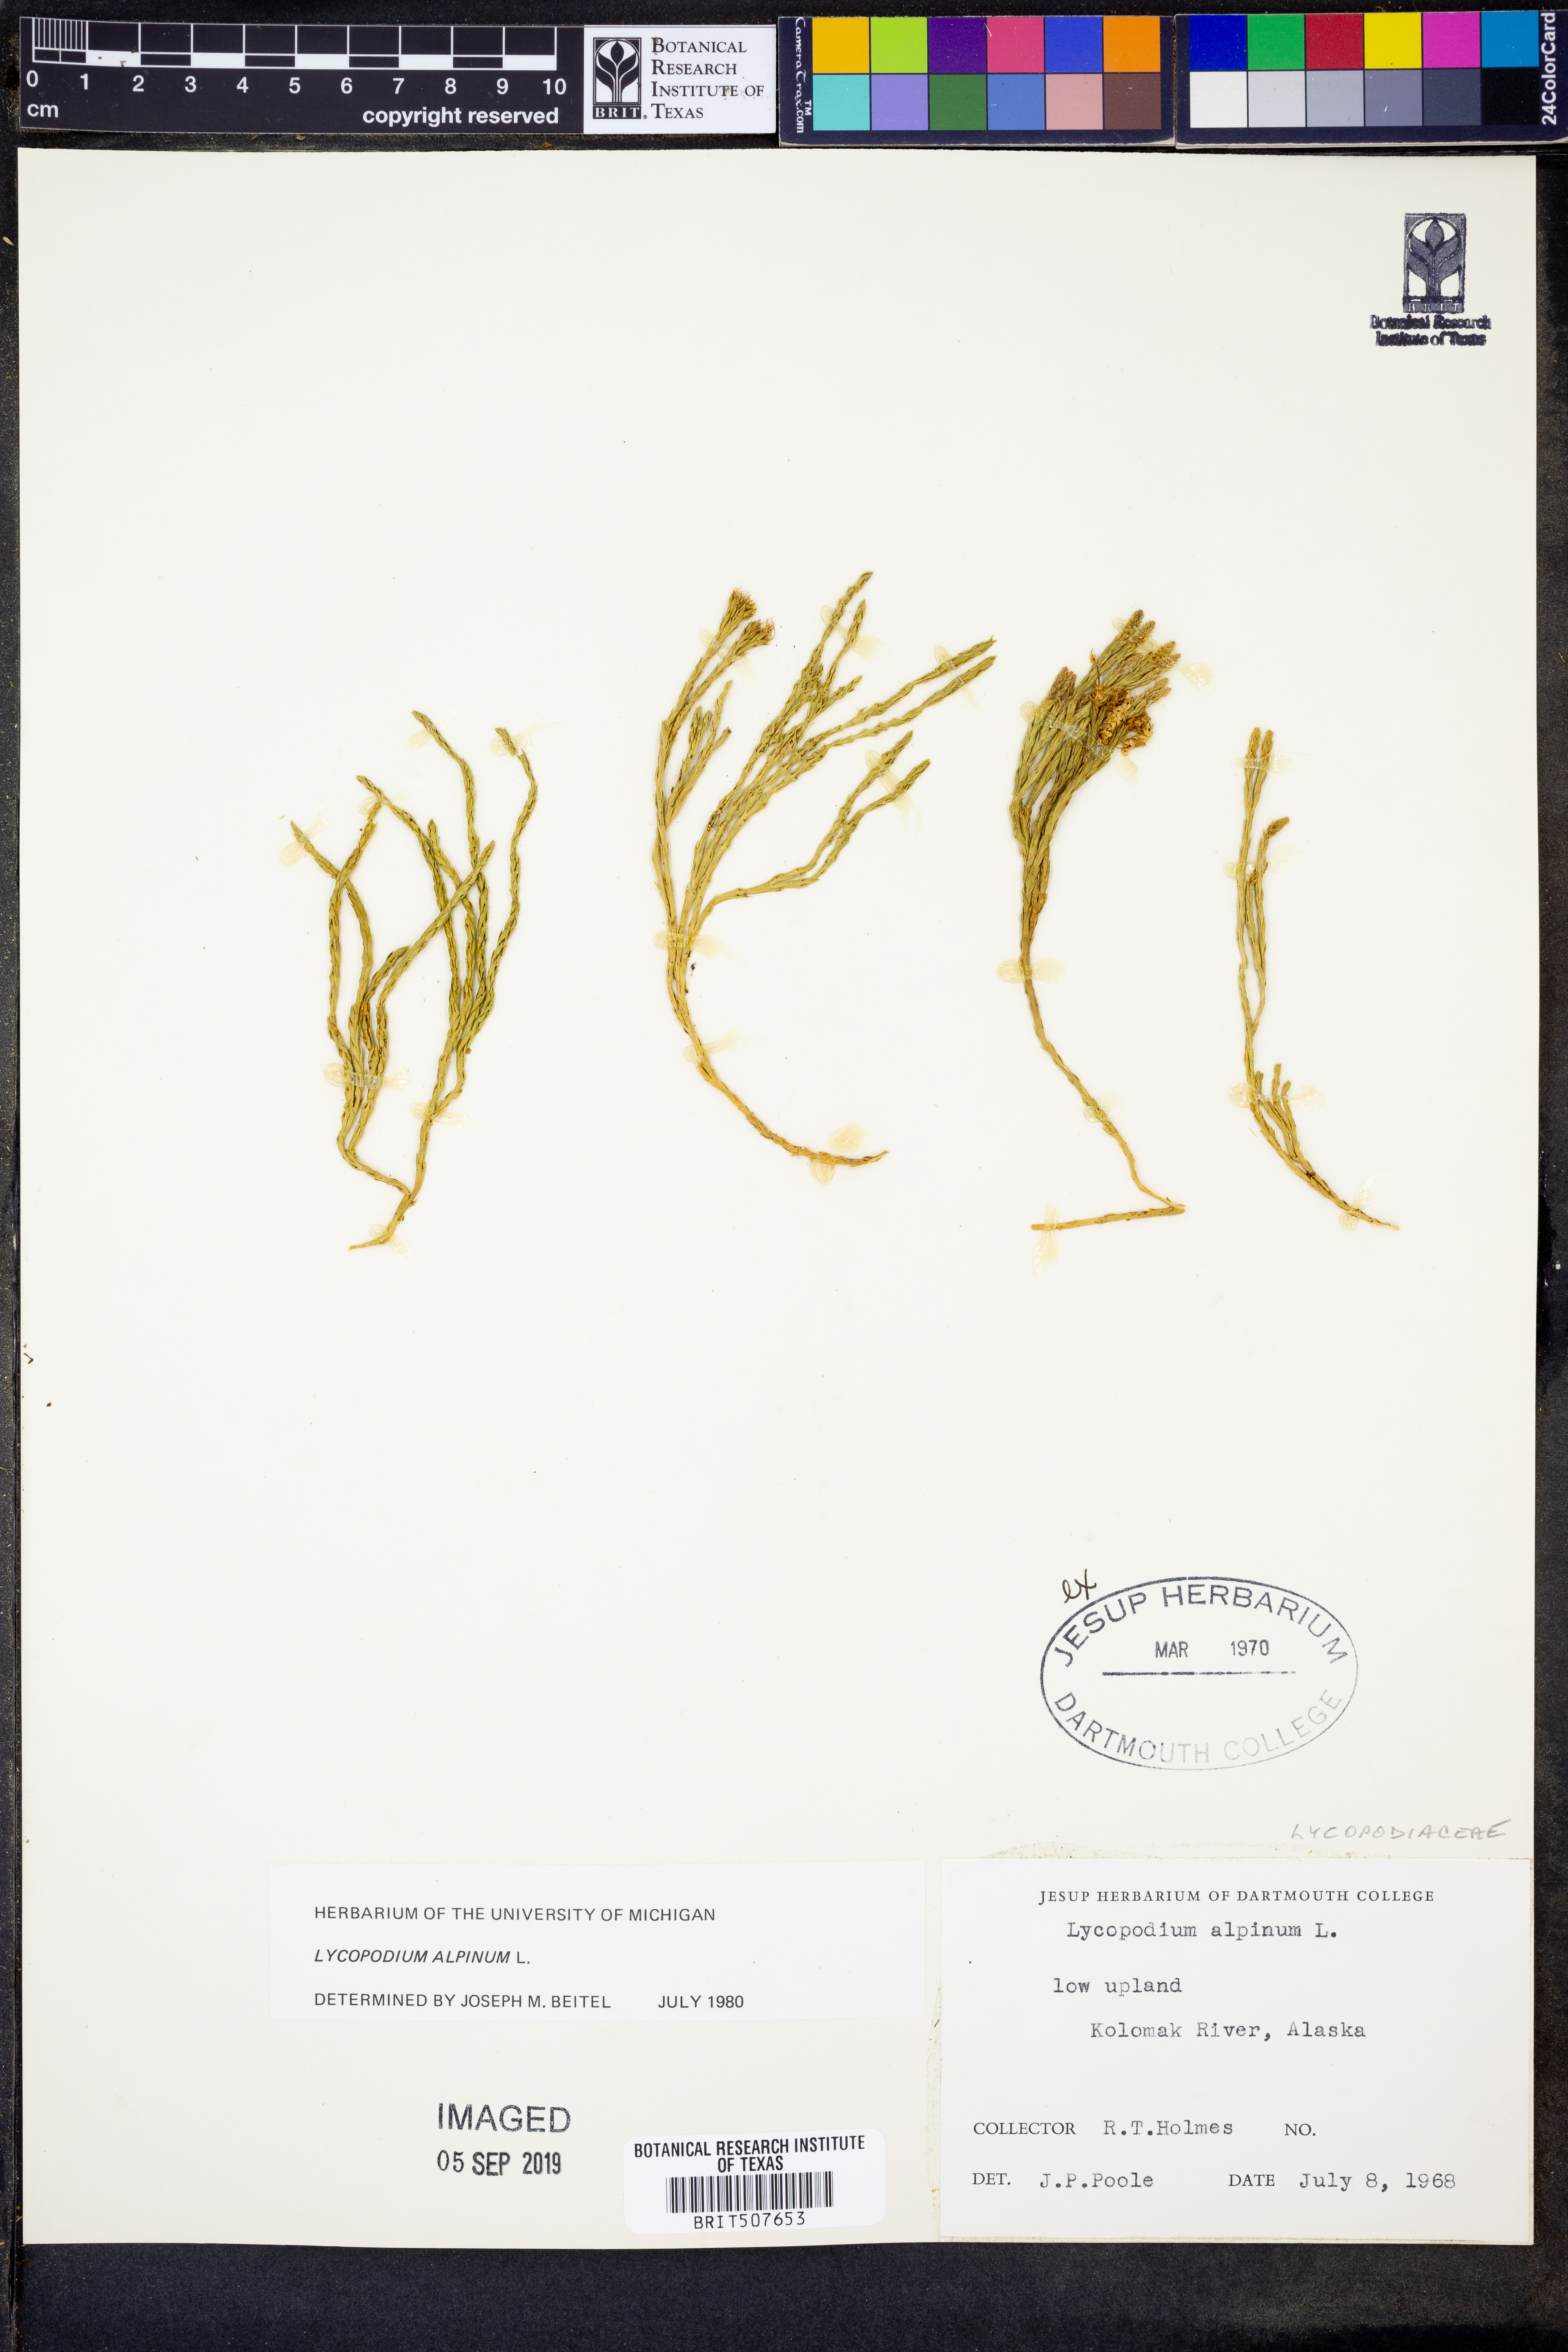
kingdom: Plantae
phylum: Tracheophyta
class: Lycopodiopsida
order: Lycopodiales
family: Lycopodiaceae
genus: Diphasiastrum
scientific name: Diphasiastrum alpinum
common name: Alpine clubmoss
